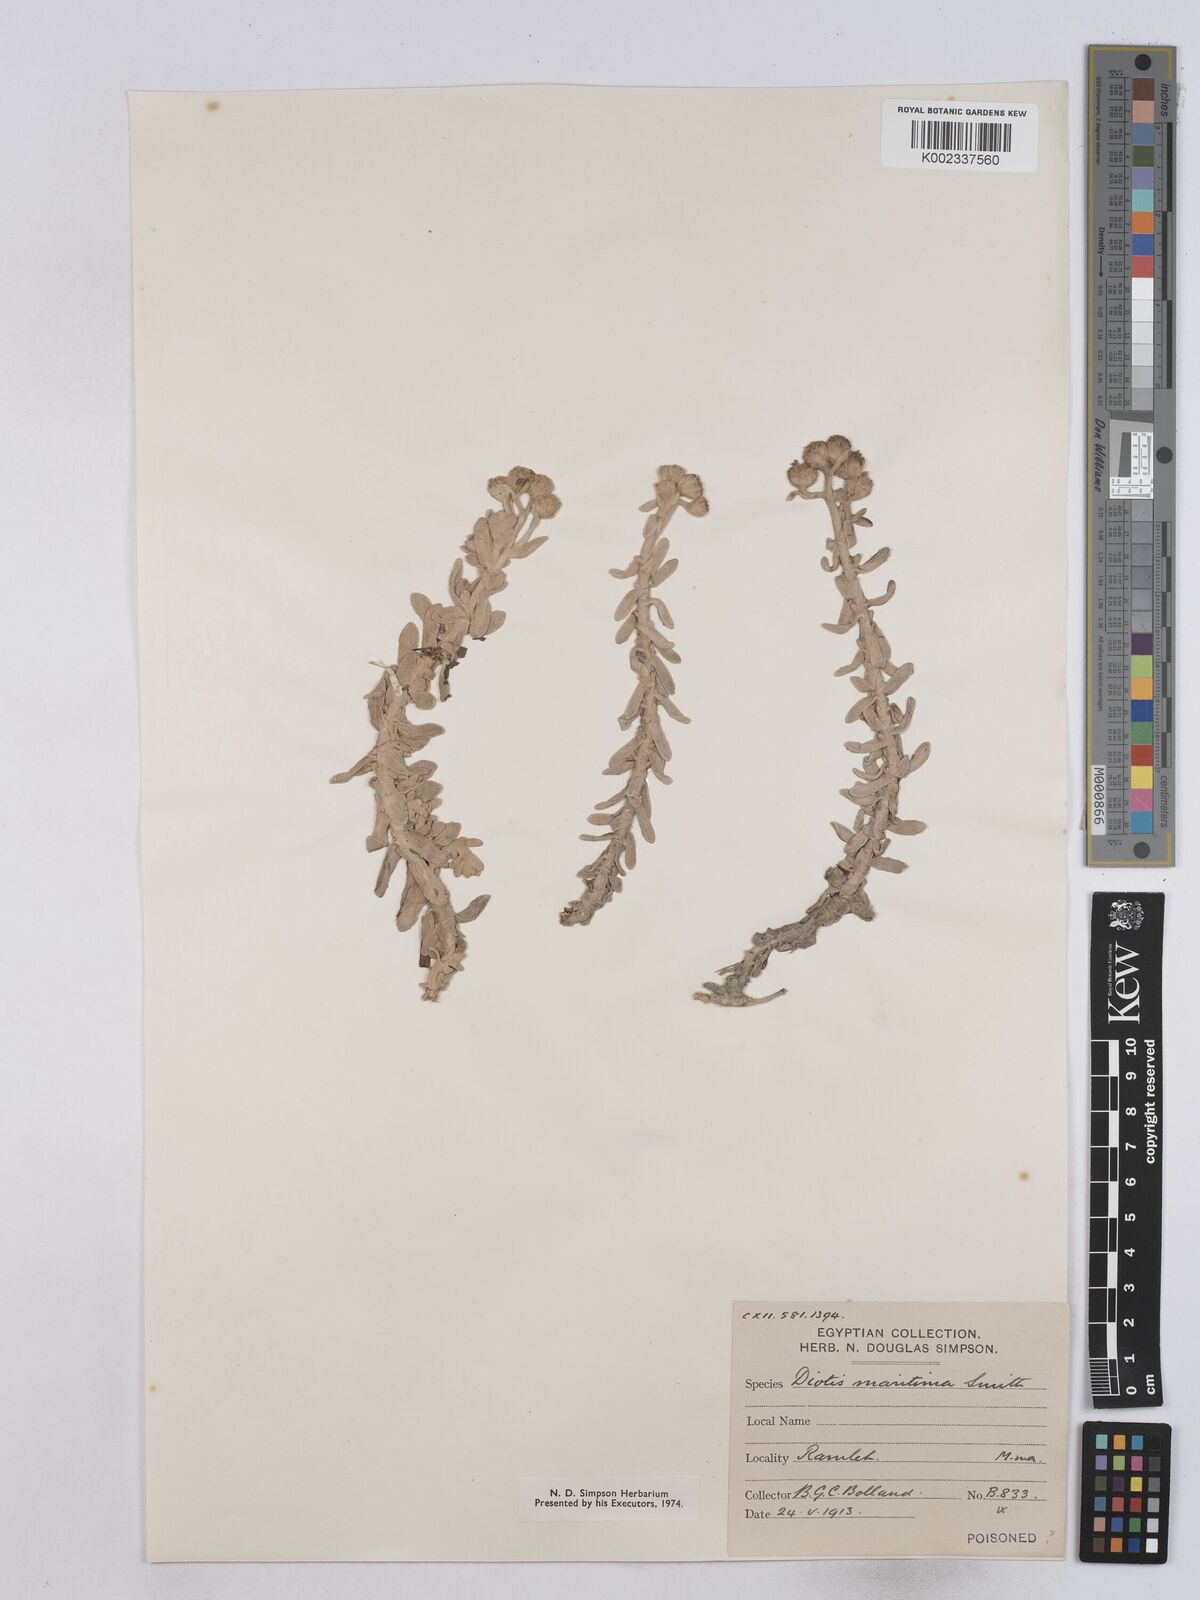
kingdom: Plantae
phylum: Tracheophyta
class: Magnoliopsida
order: Asterales
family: Asteraceae
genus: Achillea
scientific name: Achillea maritima
